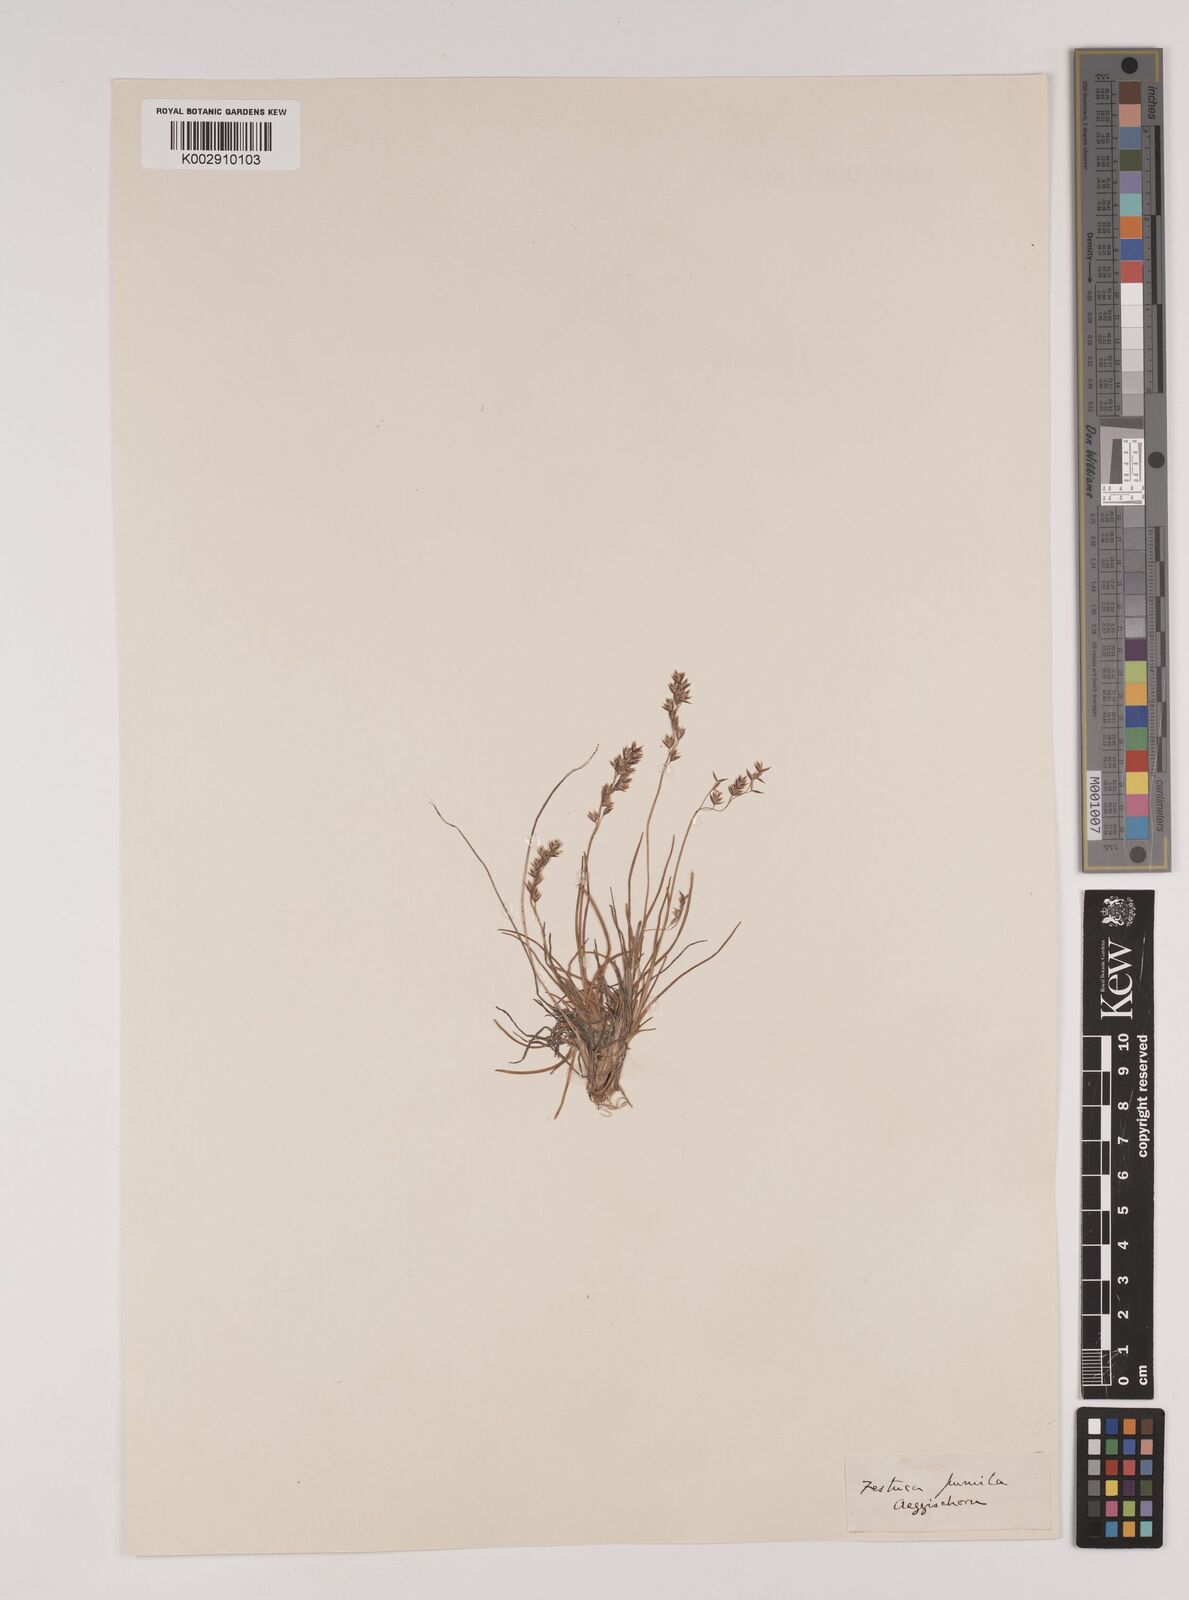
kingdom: Plantae
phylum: Tracheophyta
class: Liliopsida
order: Poales
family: Poaceae
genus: Festuca
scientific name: Festuca
